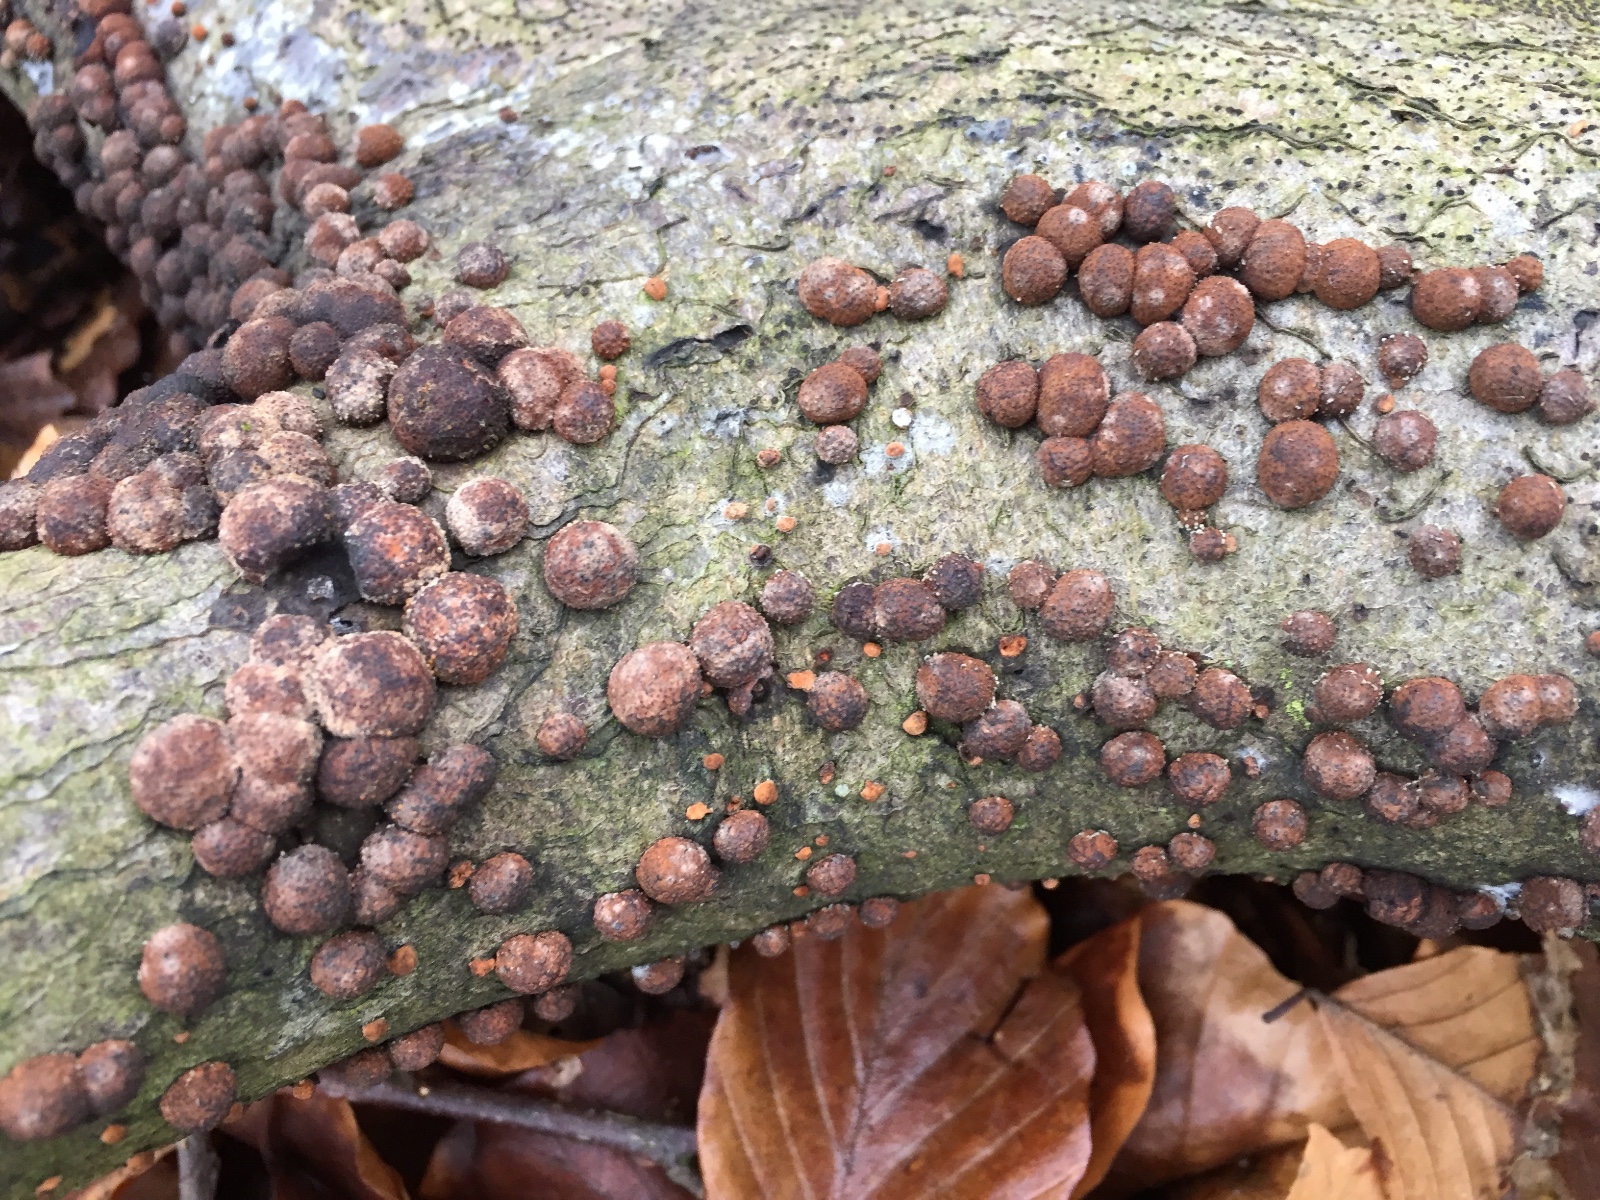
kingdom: Fungi
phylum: Ascomycota
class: Sordariomycetes
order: Xylariales
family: Hypoxylaceae
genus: Hypoxylon
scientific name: Hypoxylon fragiforme
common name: kuljordbær
